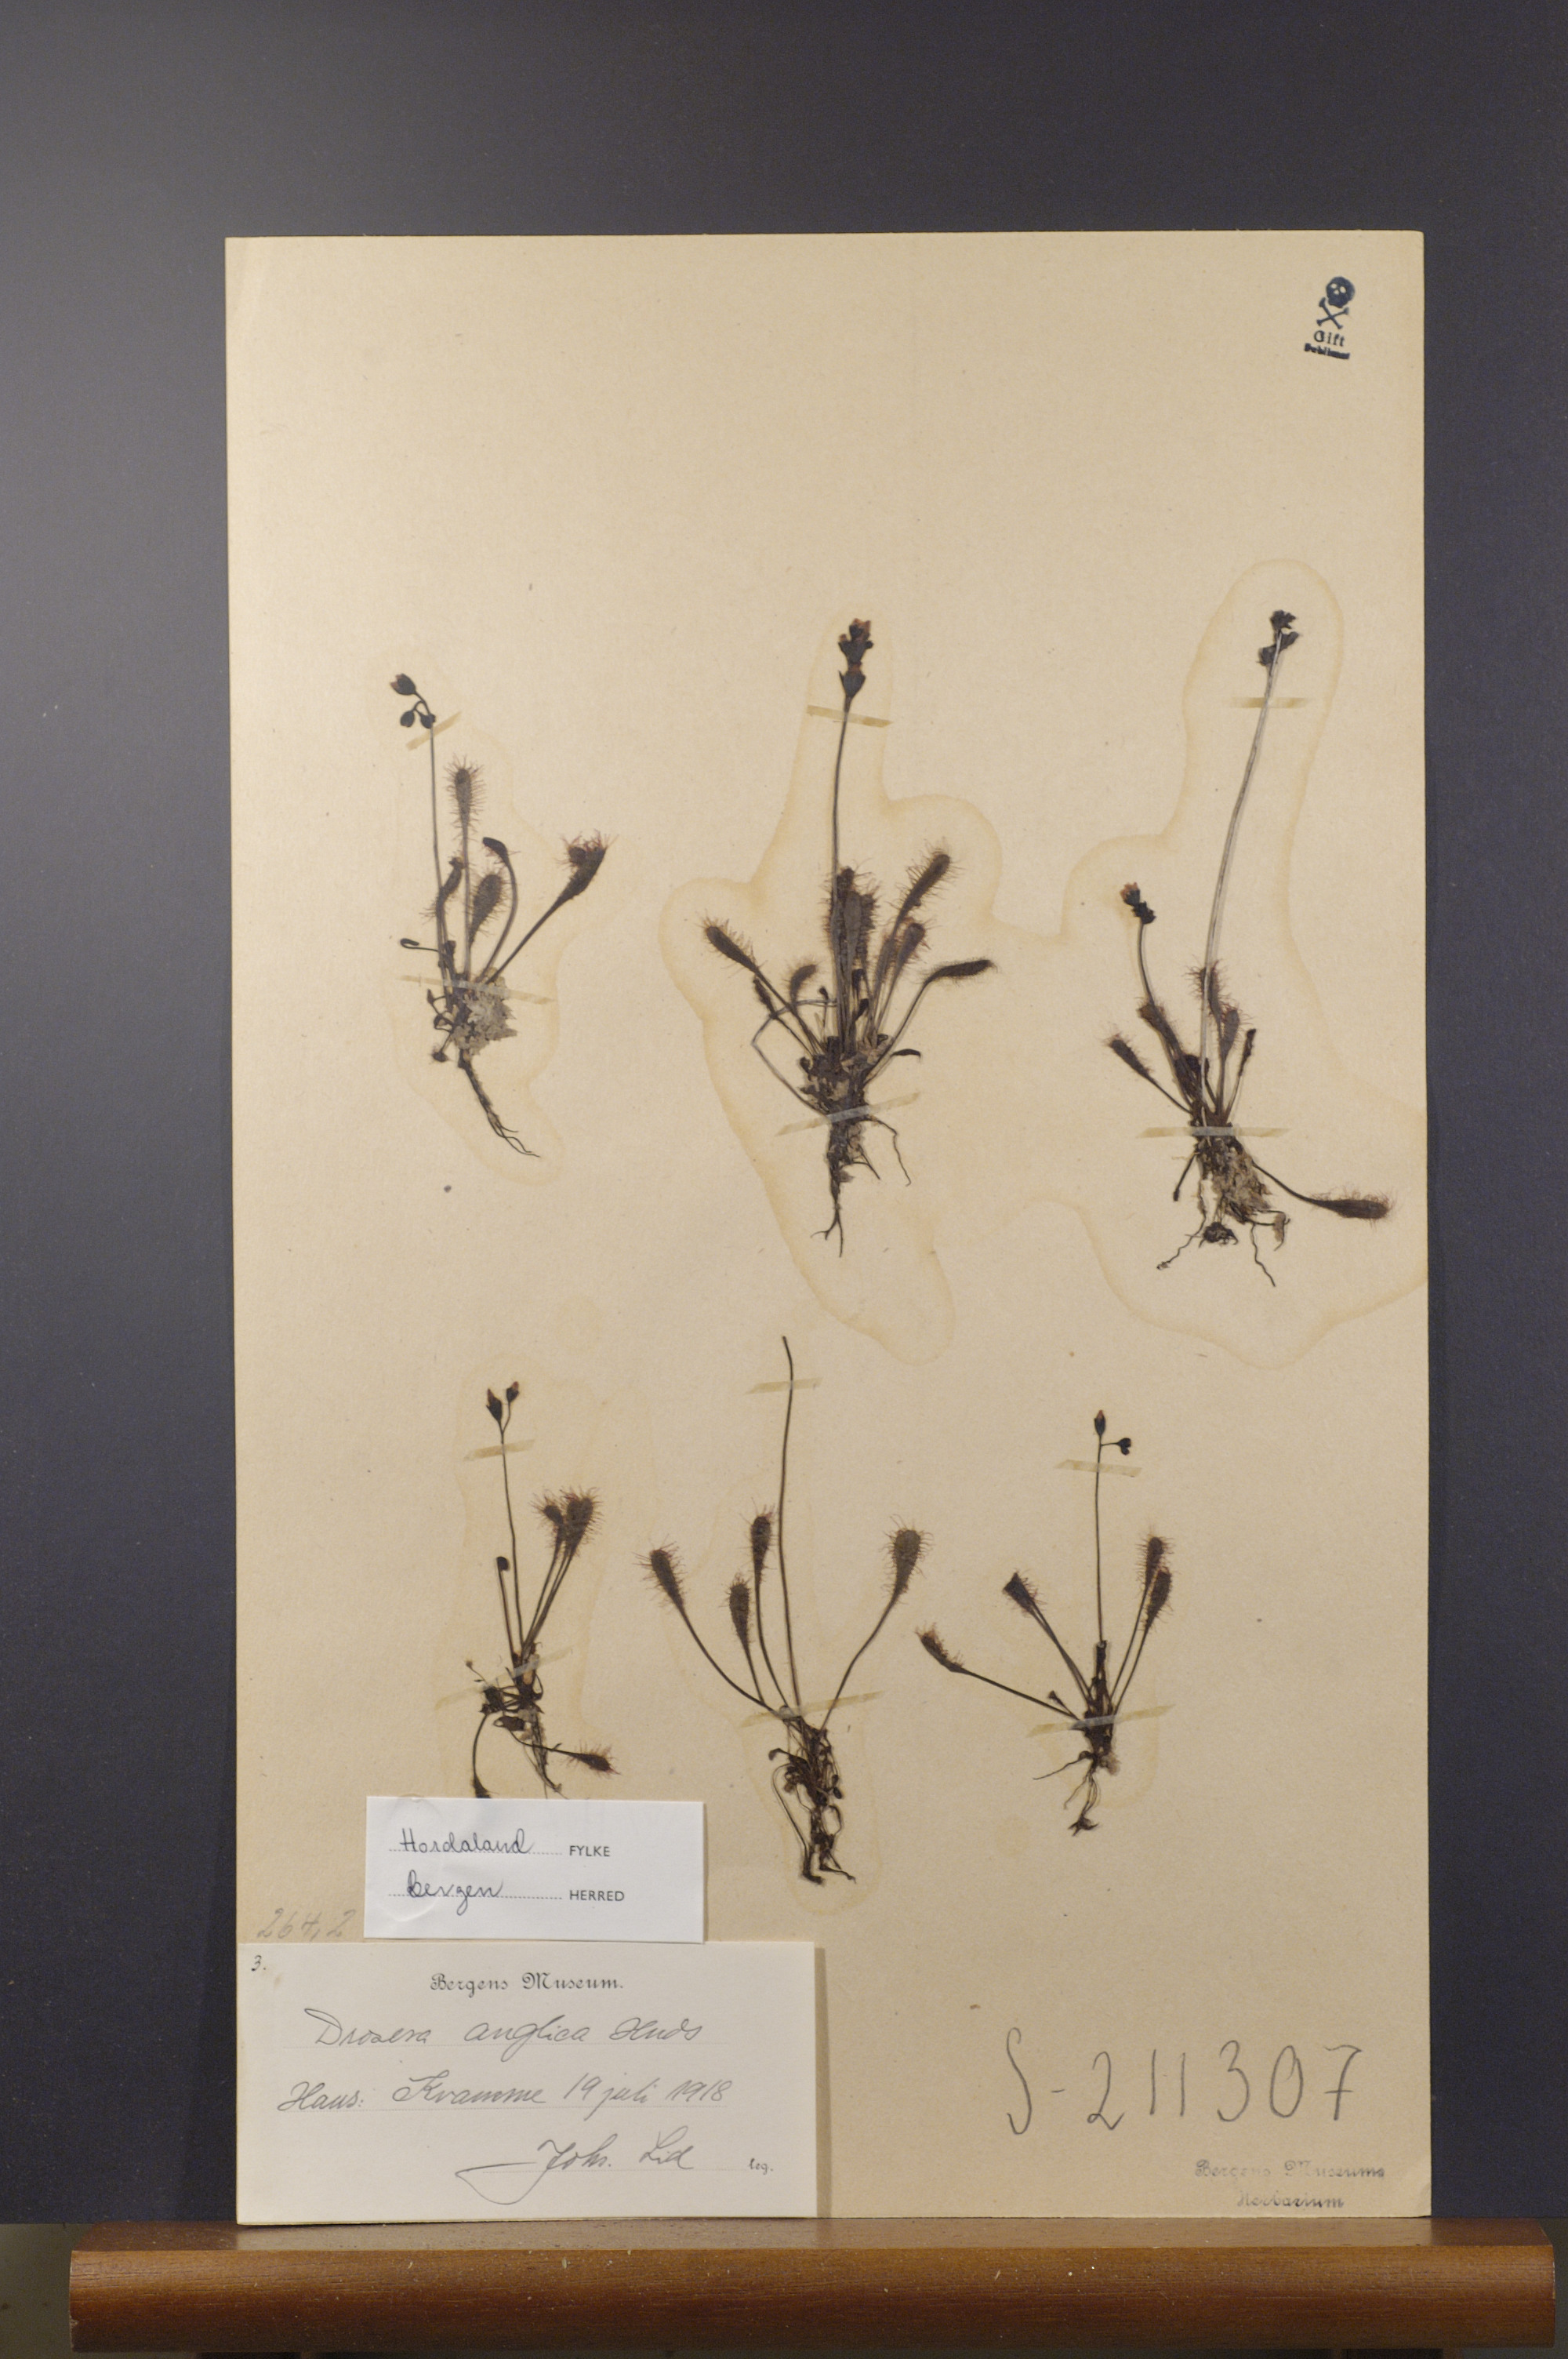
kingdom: Plantae
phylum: Tracheophyta
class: Magnoliopsida
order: Caryophyllales
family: Droseraceae
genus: Drosera
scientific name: Drosera anglica
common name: Great sundew
